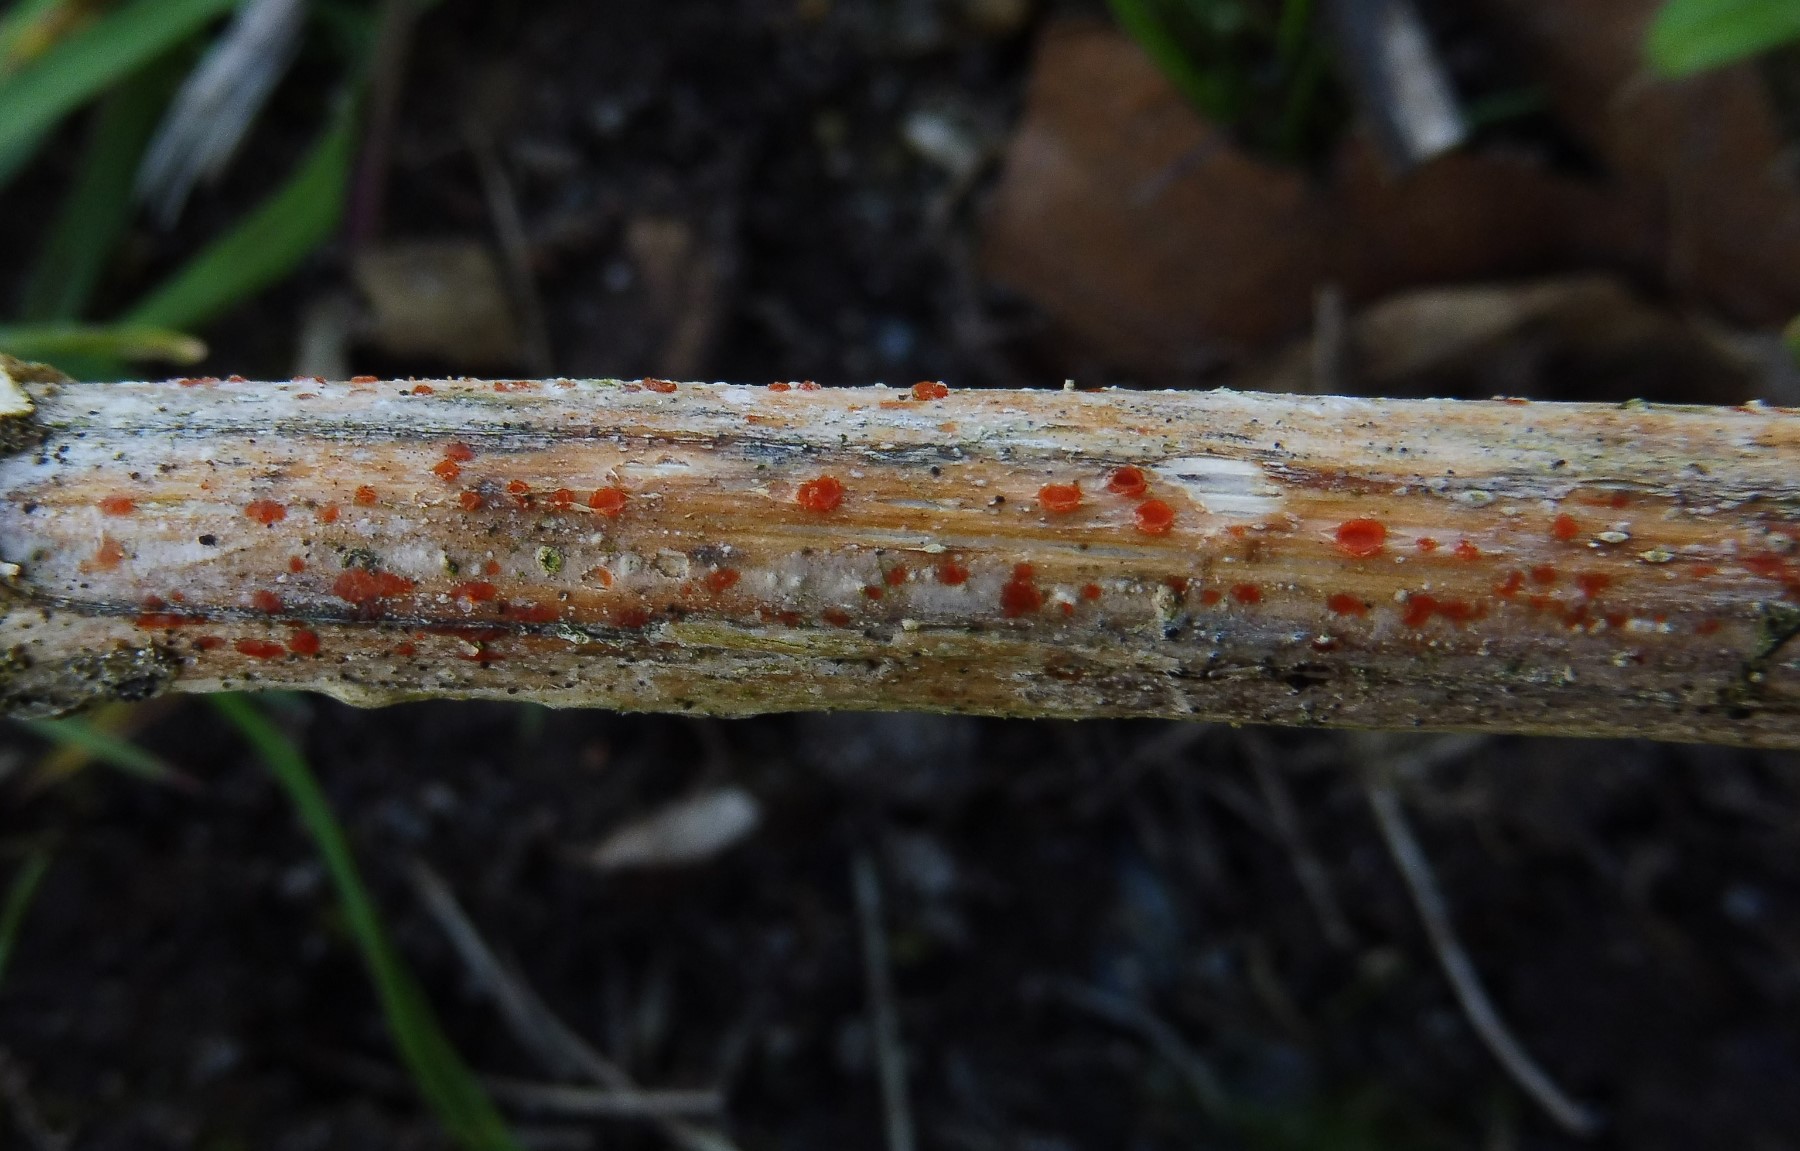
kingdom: Fungi
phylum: Ascomycota
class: Leotiomycetes
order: Helotiales
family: Calloriaceae
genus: Calloria
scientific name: Calloria urticae
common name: nælde-orangeskive
